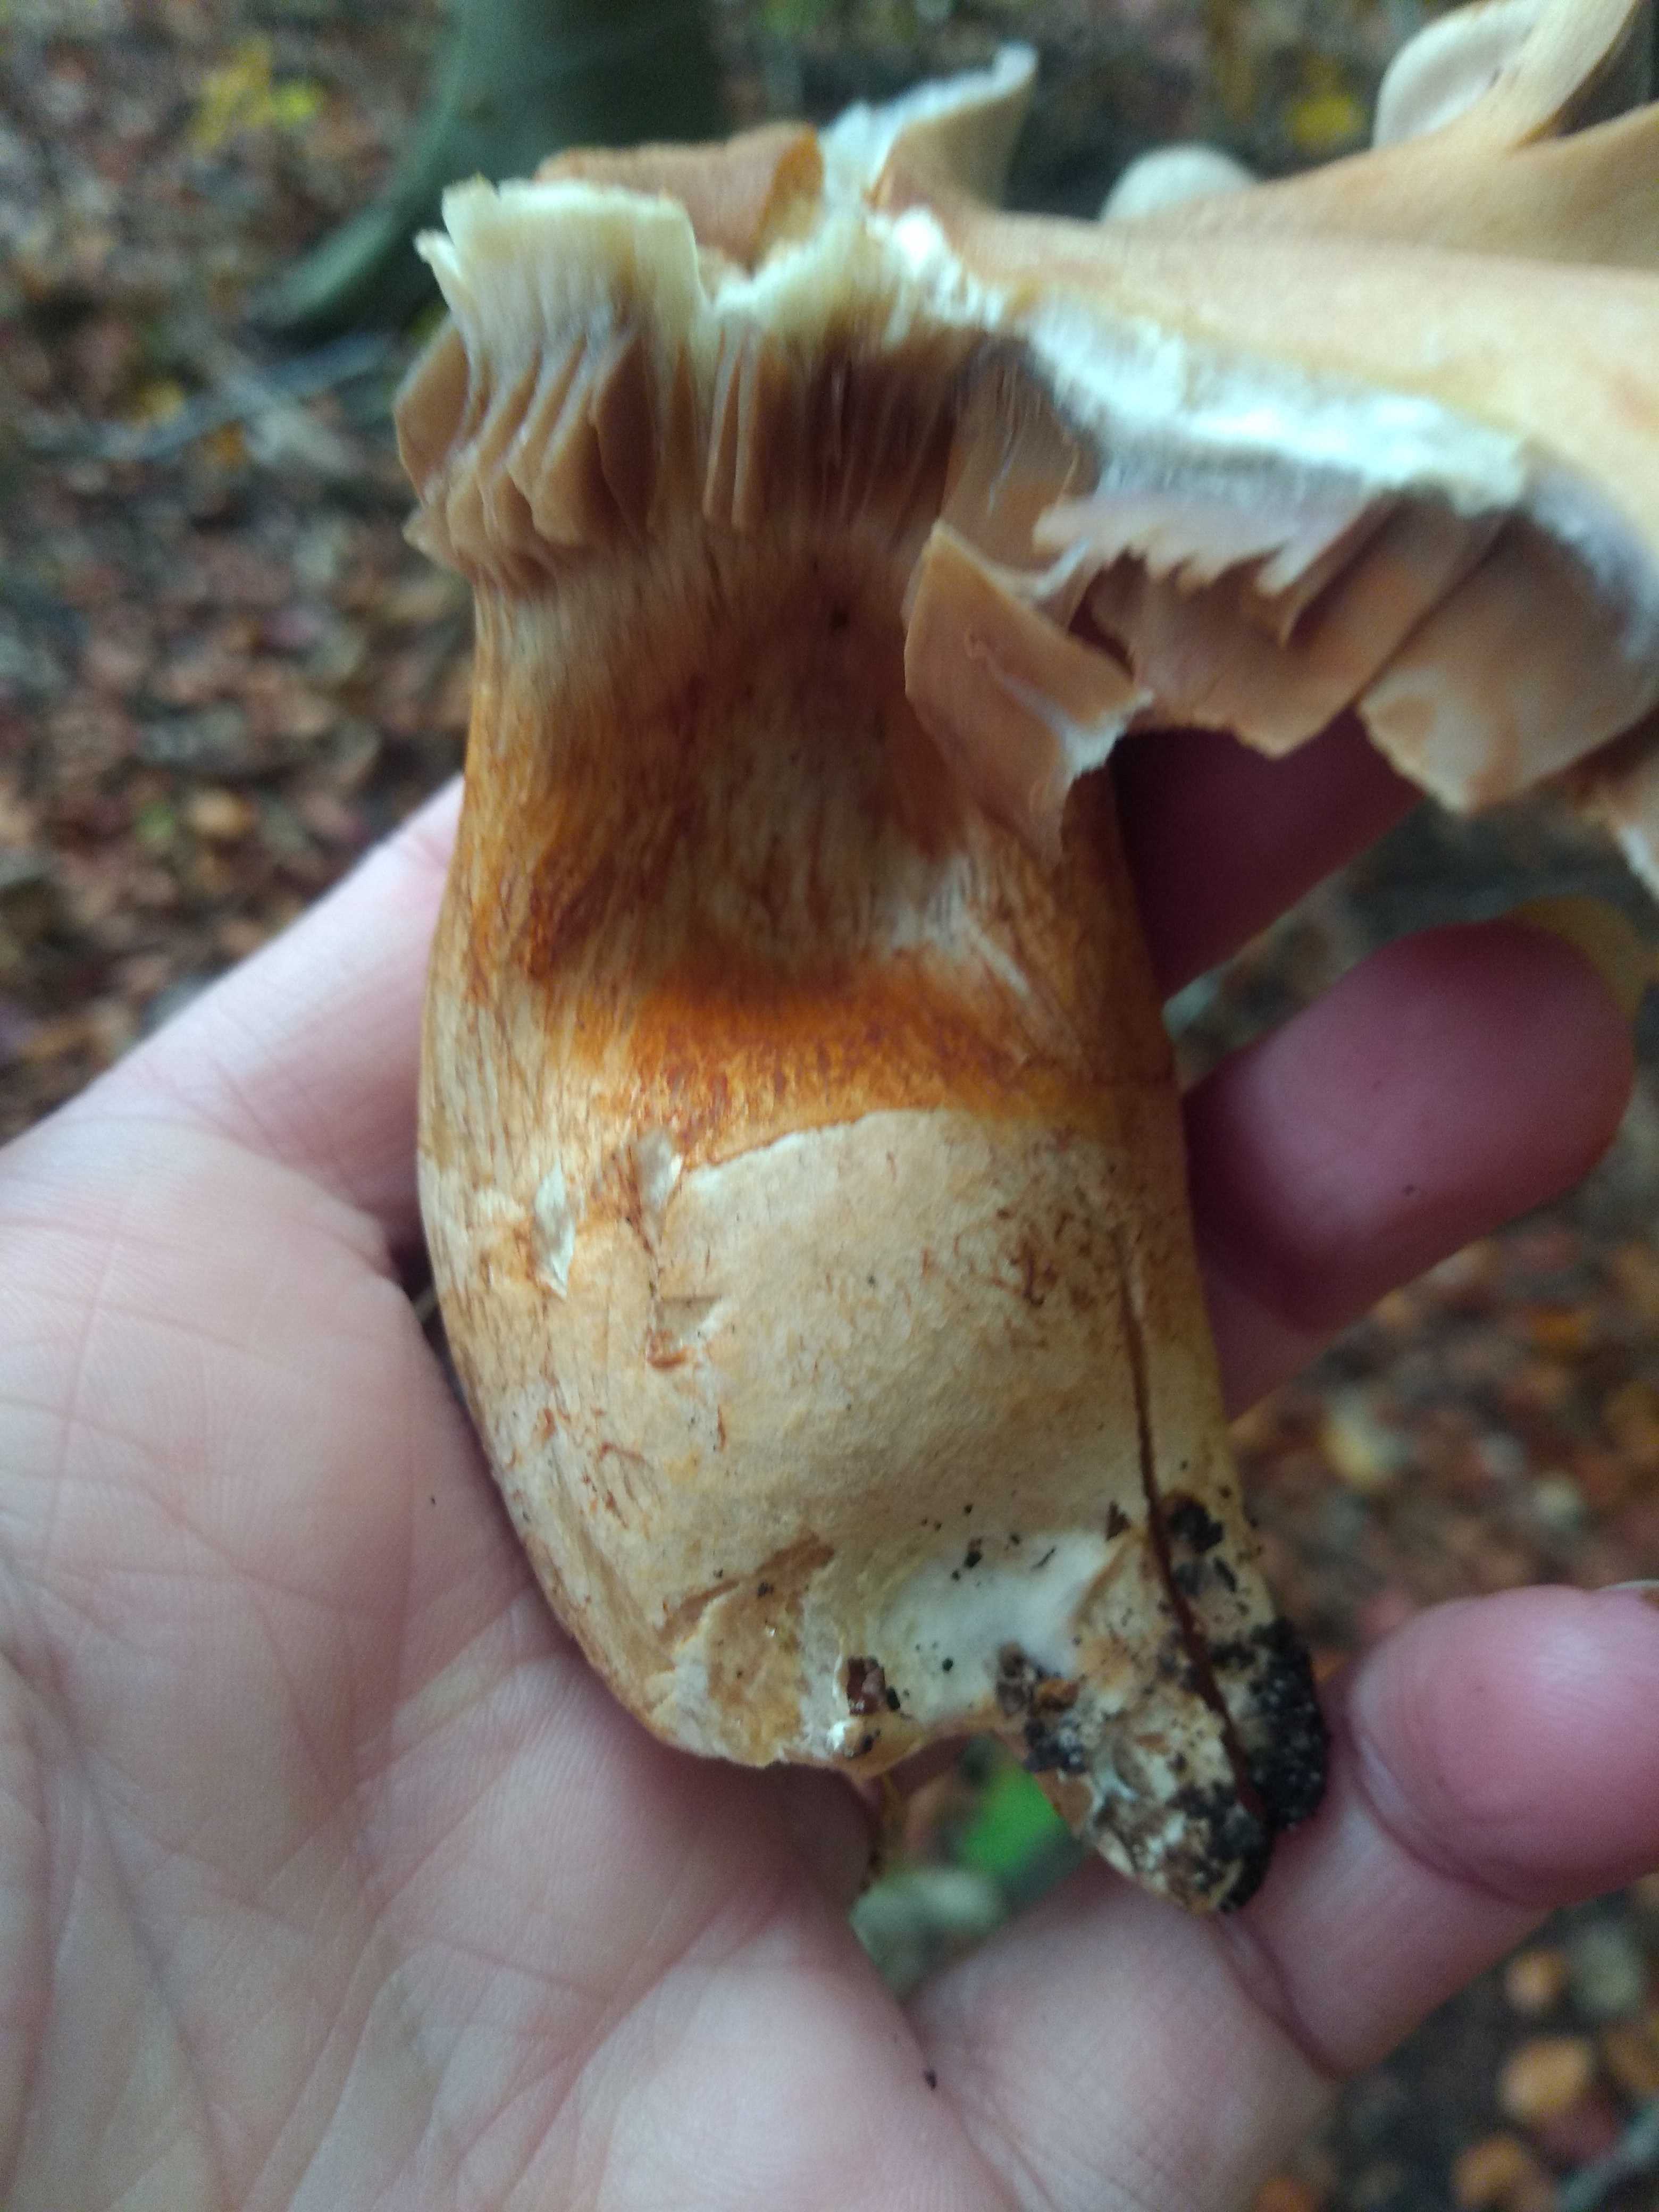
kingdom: Fungi
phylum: Basidiomycota
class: Agaricomycetes
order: Agaricales
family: Cortinariaceae
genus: Cortinarius
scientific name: Cortinarius
